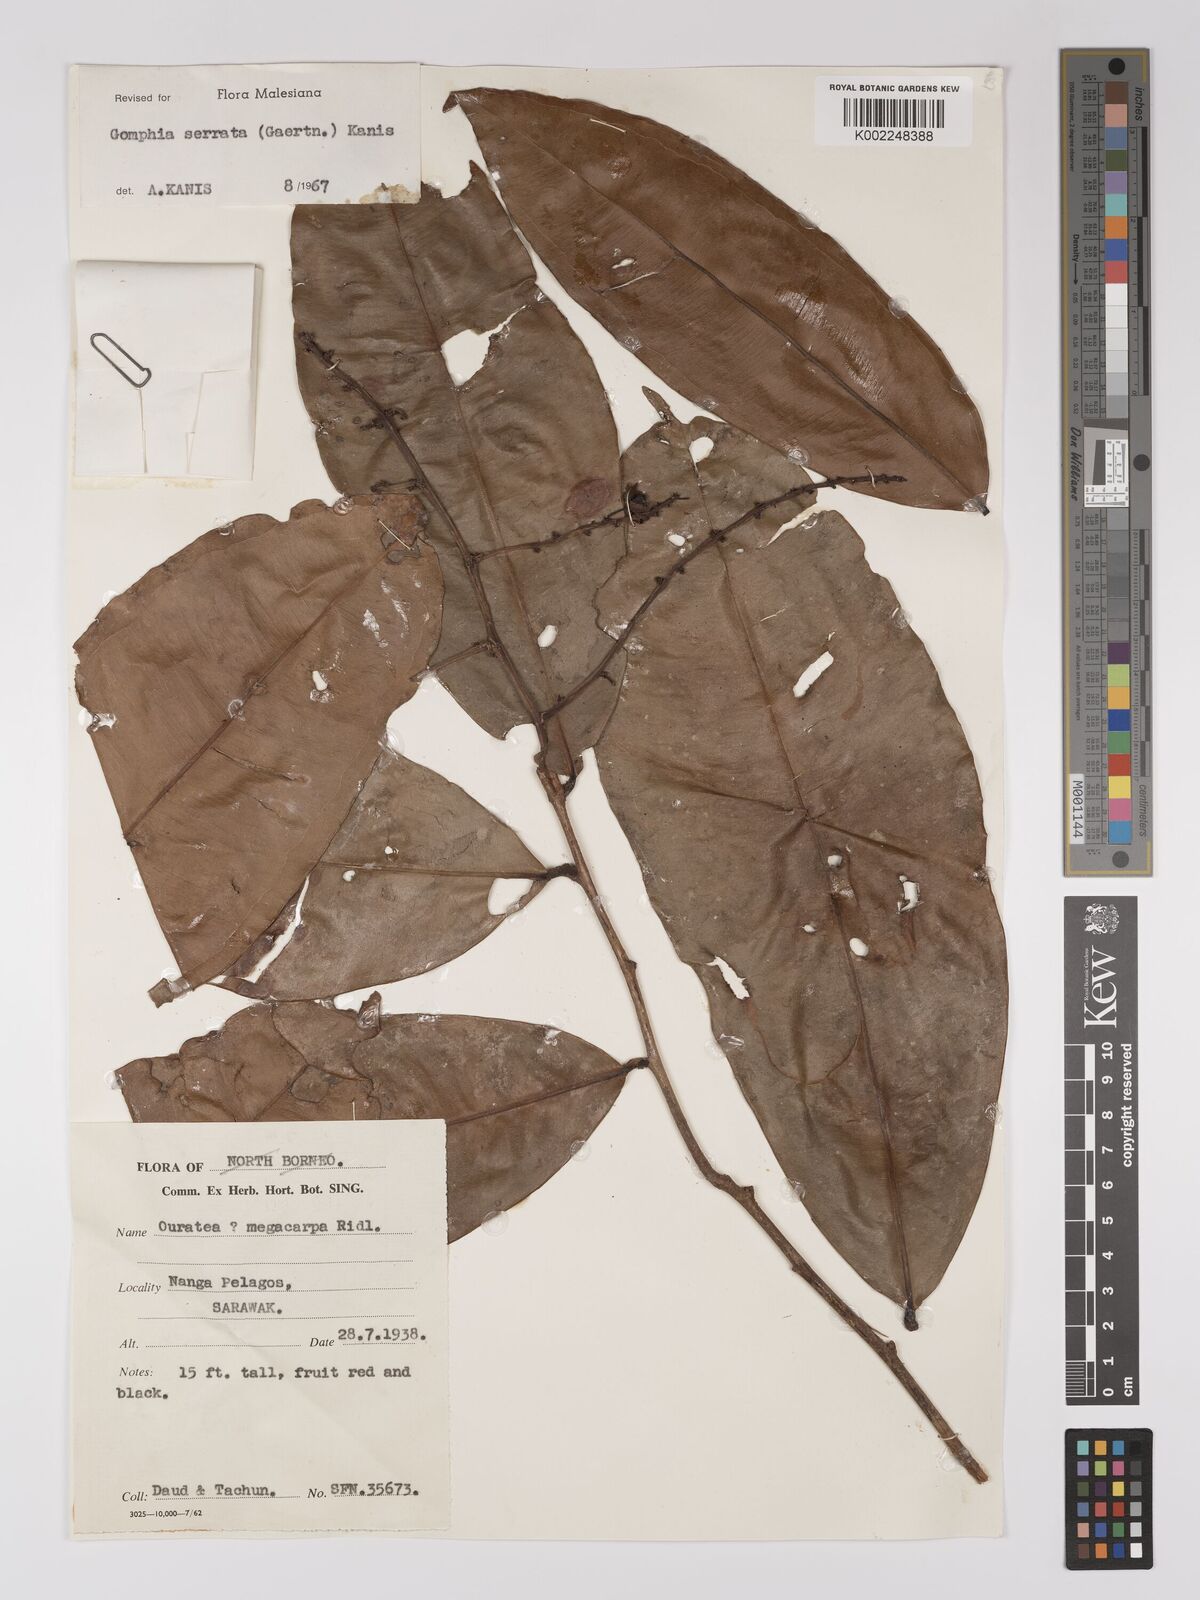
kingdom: Plantae
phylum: Tracheophyta
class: Magnoliopsida
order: Malpighiales
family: Ochnaceae
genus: Gomphia
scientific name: Gomphia serrata
